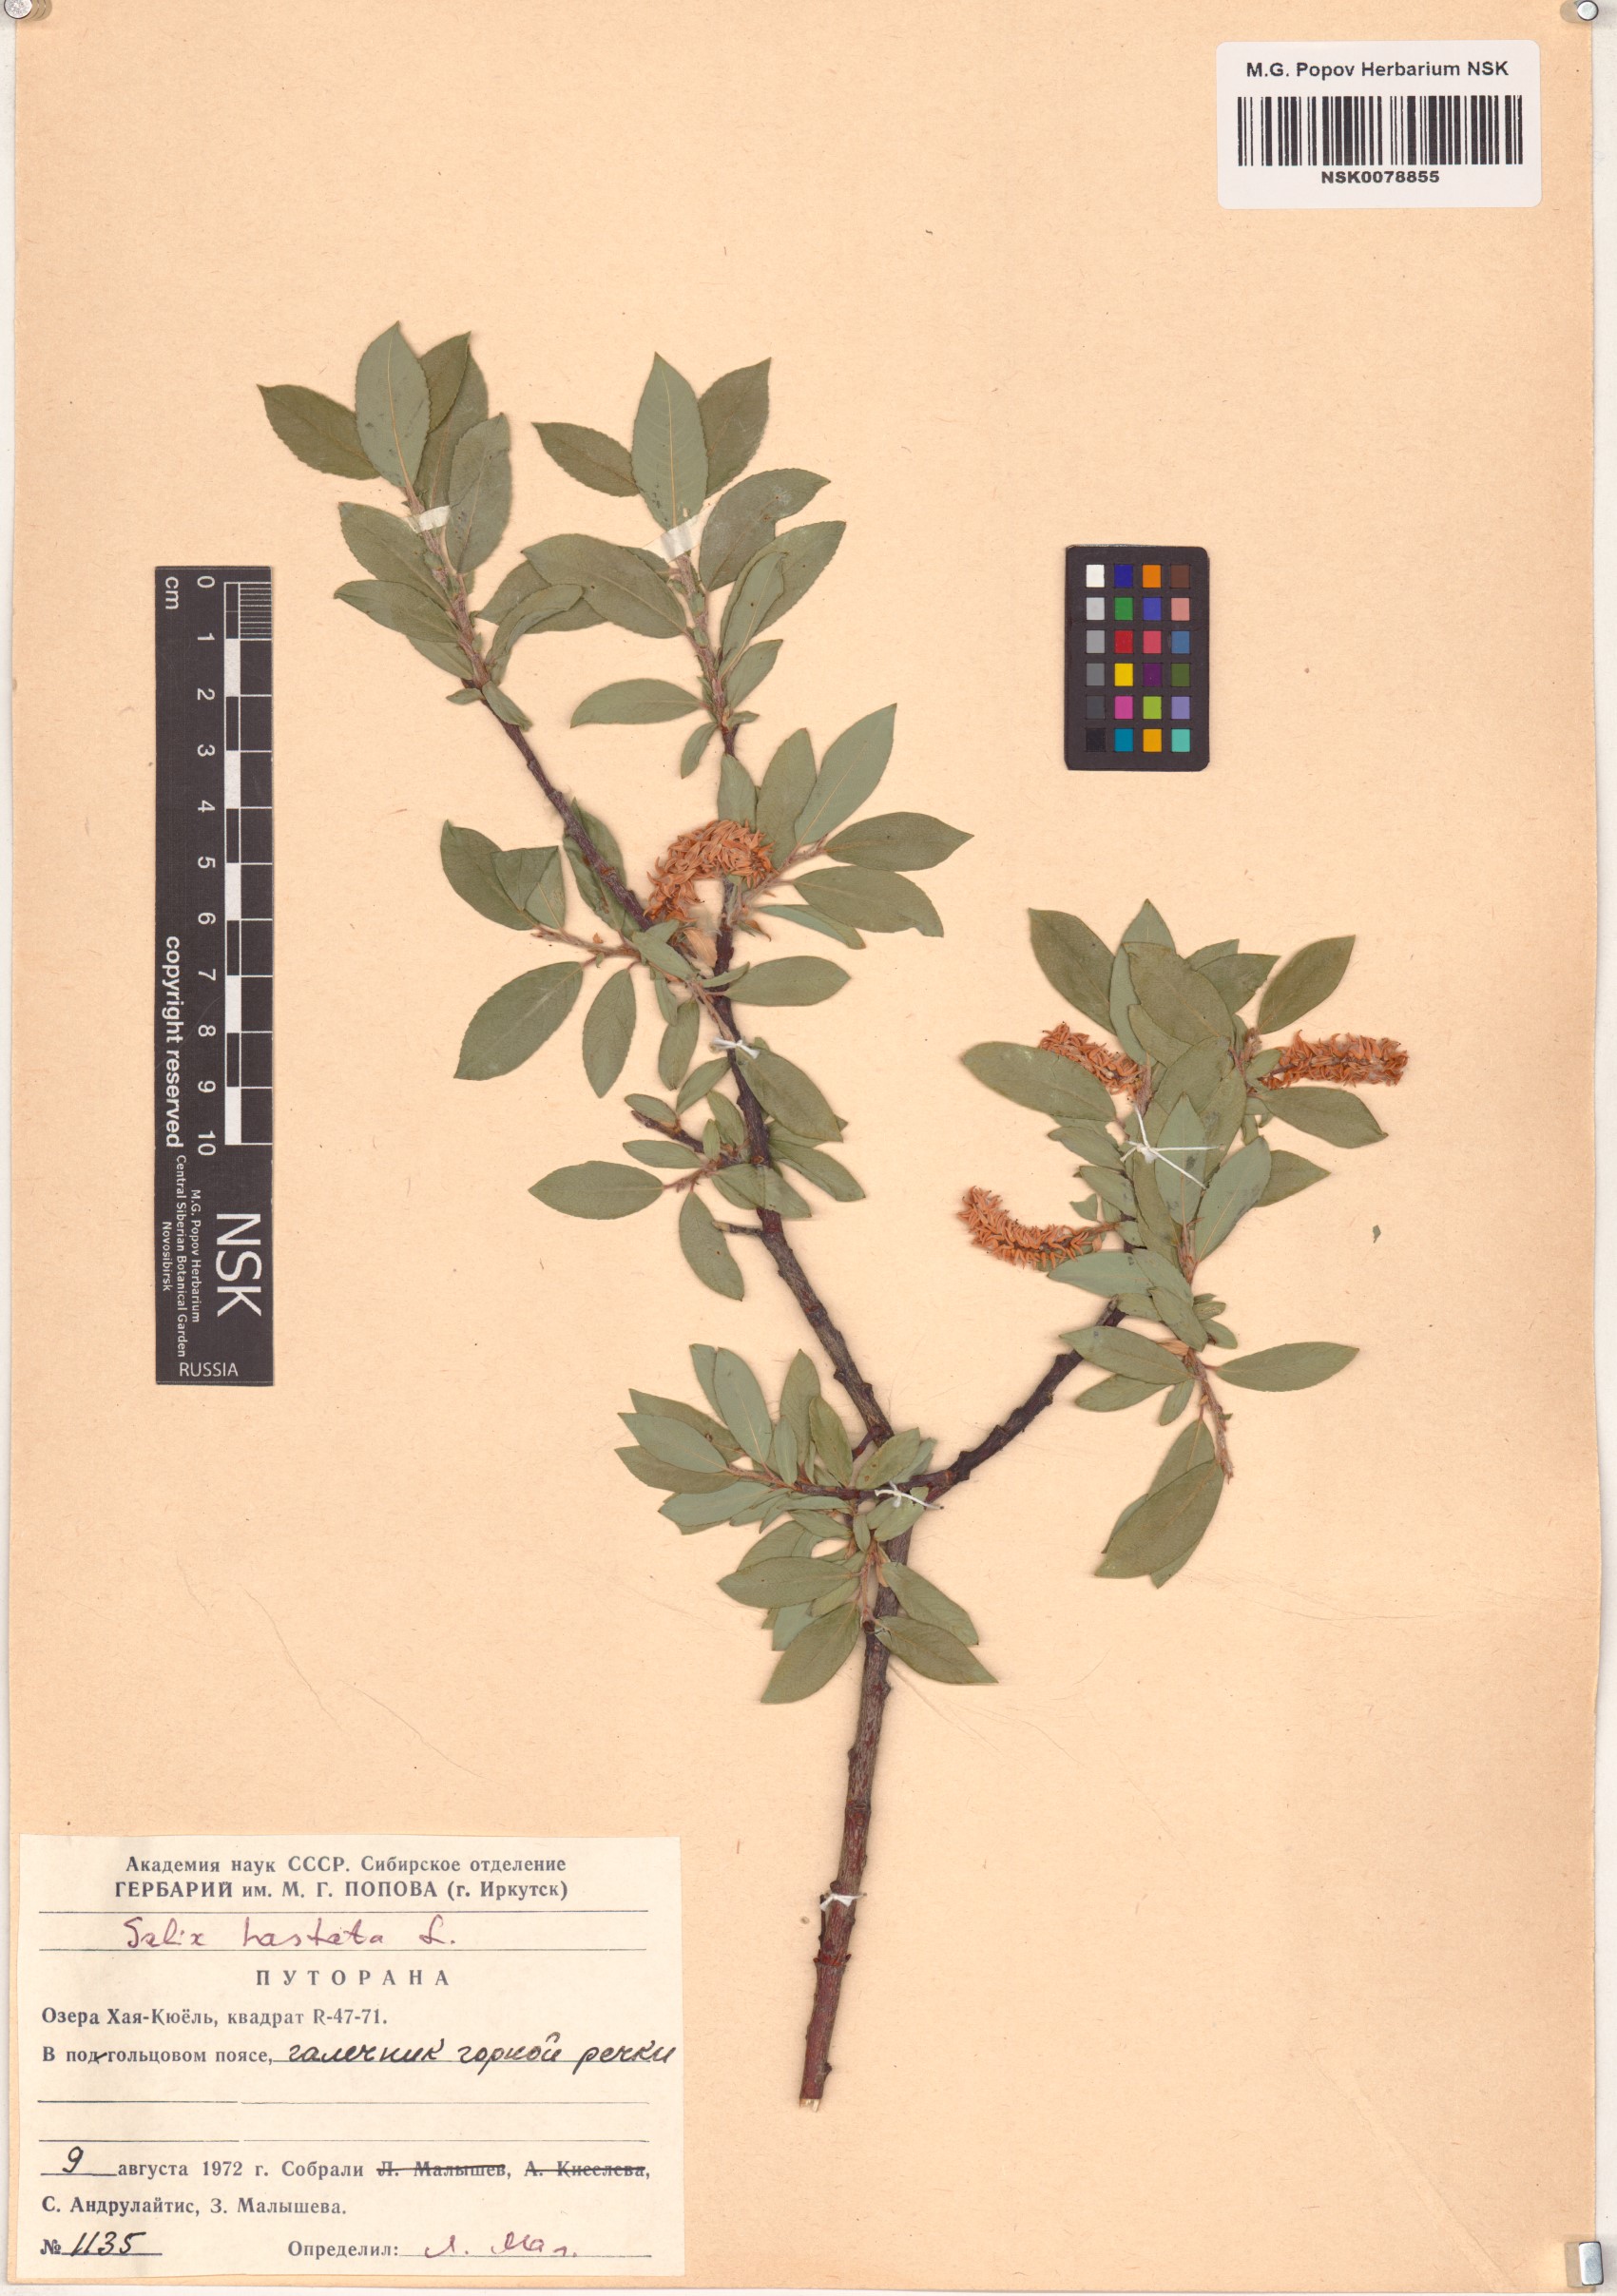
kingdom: Plantae
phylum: Tracheophyta
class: Magnoliopsida
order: Malpighiales
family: Salicaceae
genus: Salix
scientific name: Salix hastata
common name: Halberd willow
